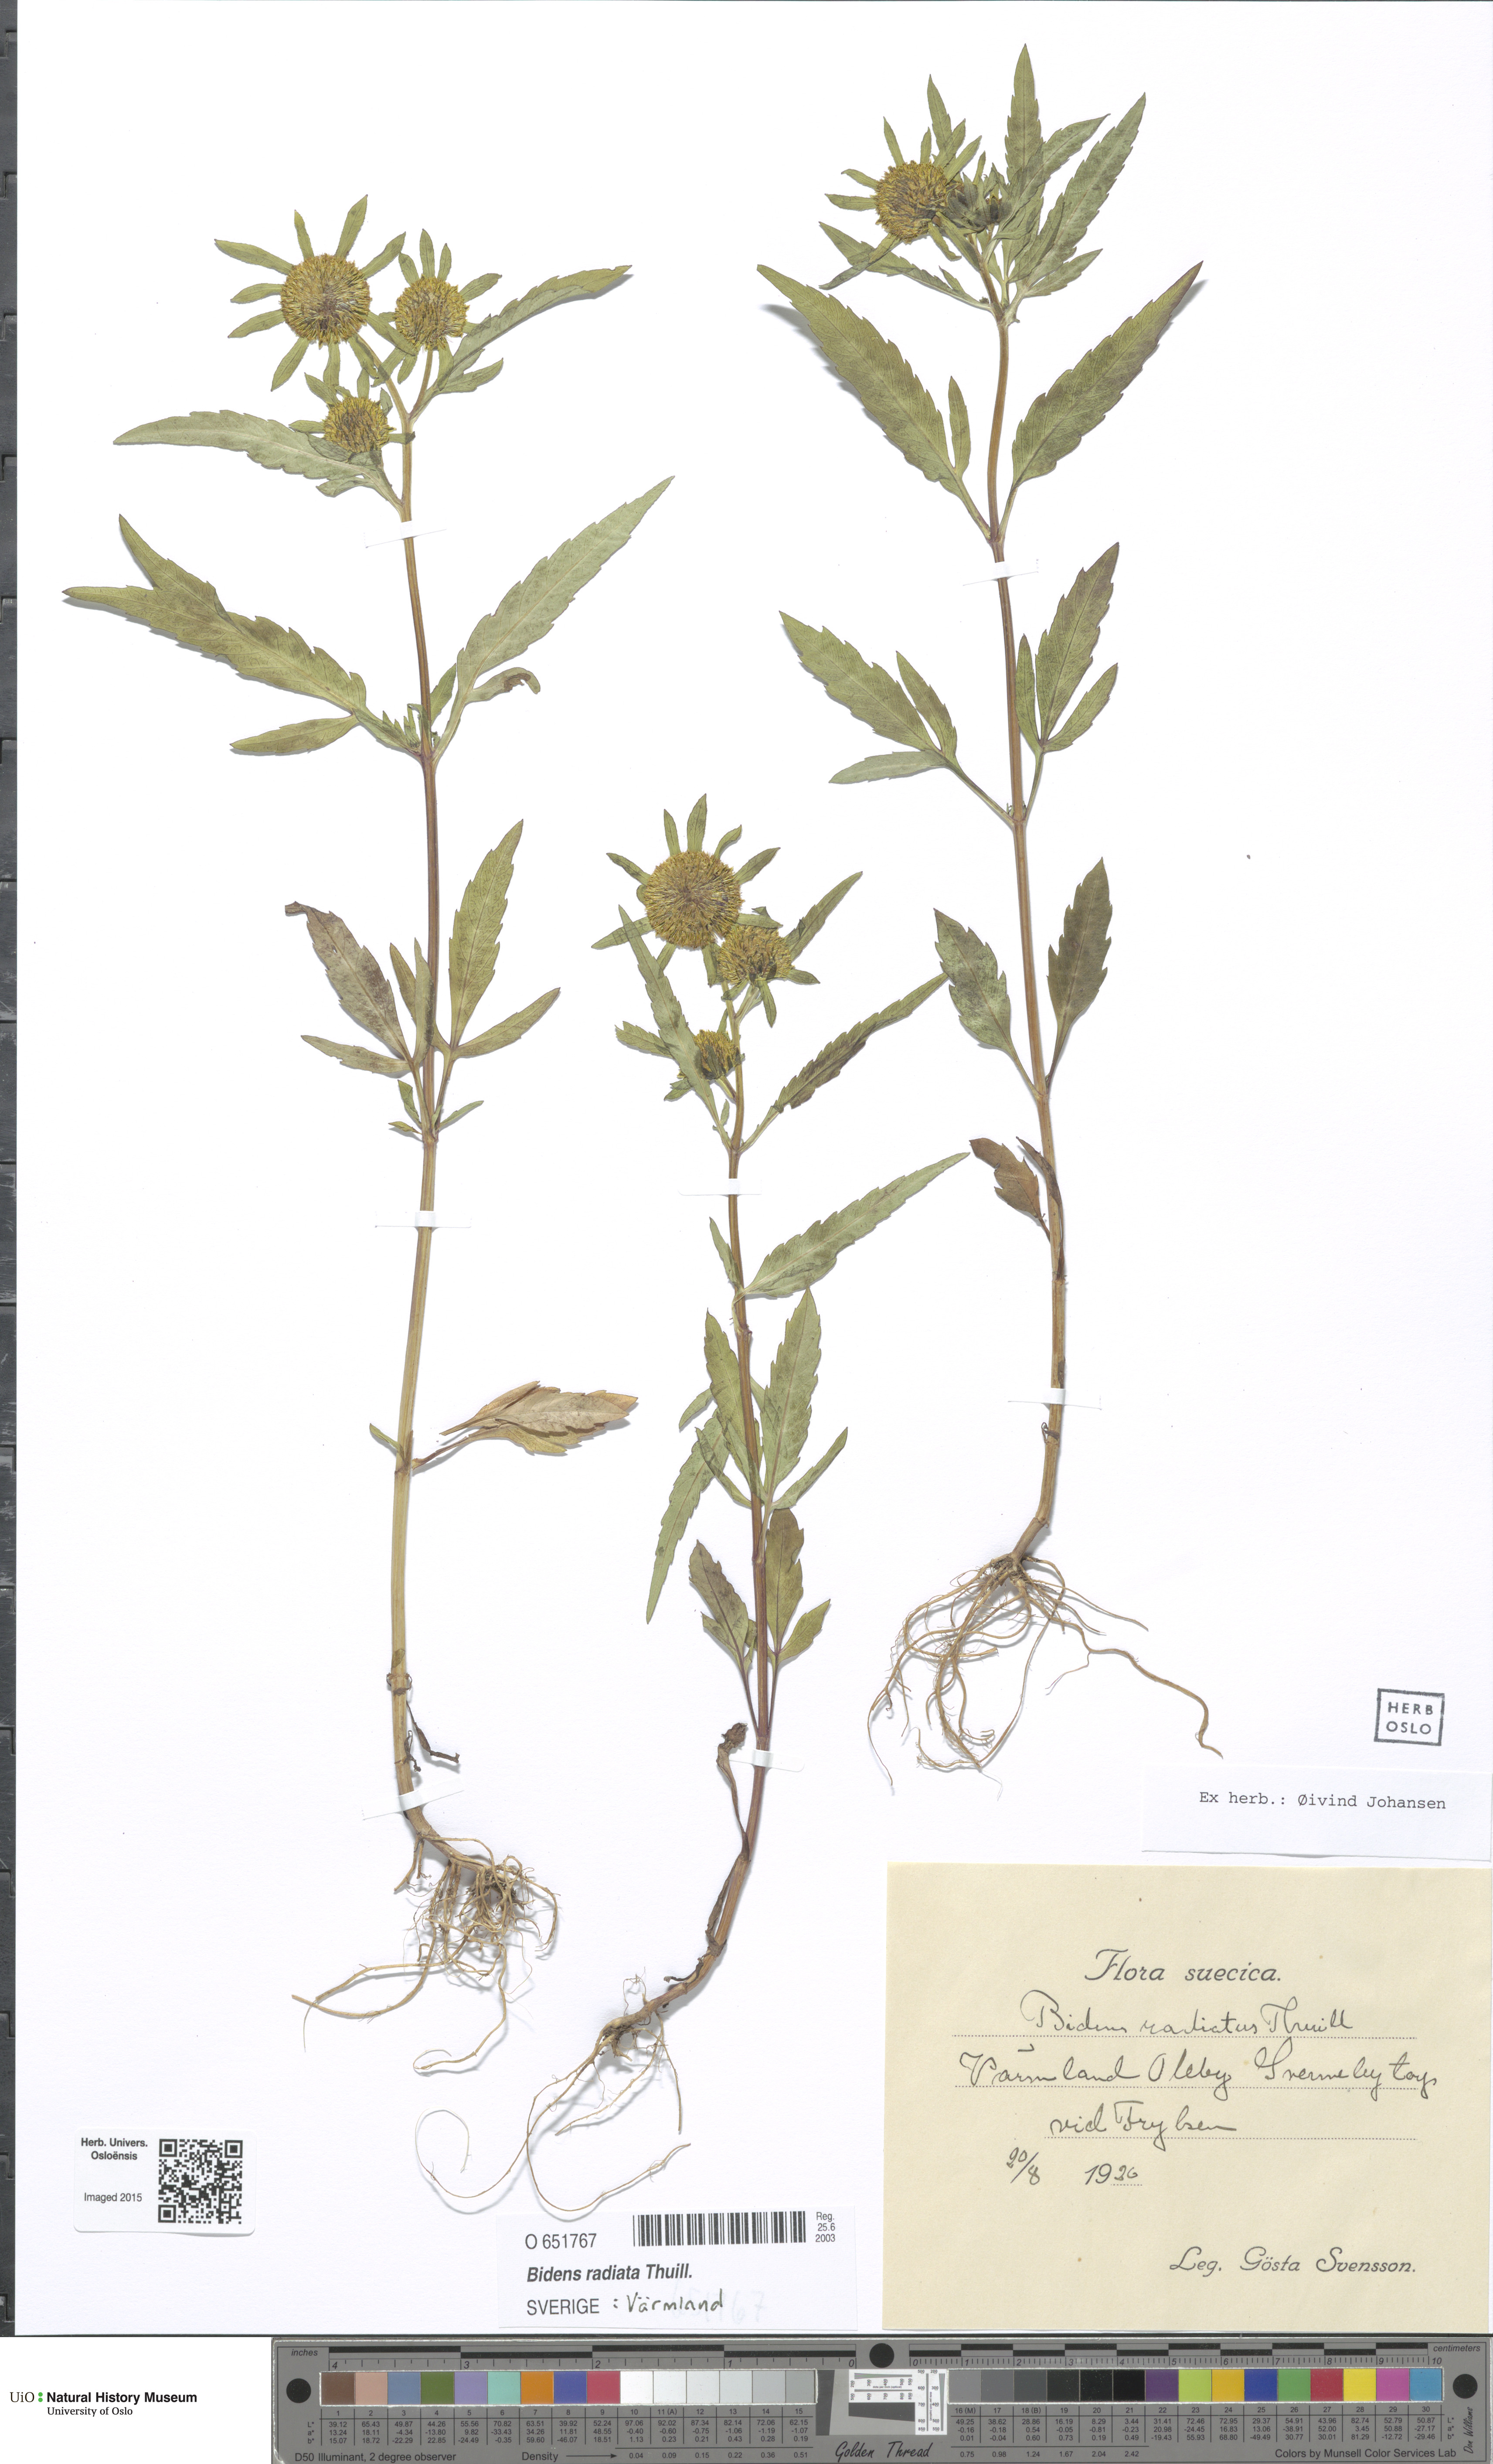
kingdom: Plantae
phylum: Tracheophyta
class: Magnoliopsida
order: Asterales
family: Asteraceae
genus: Bidens
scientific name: Bidens radiata
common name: Radiating bur-marigold
